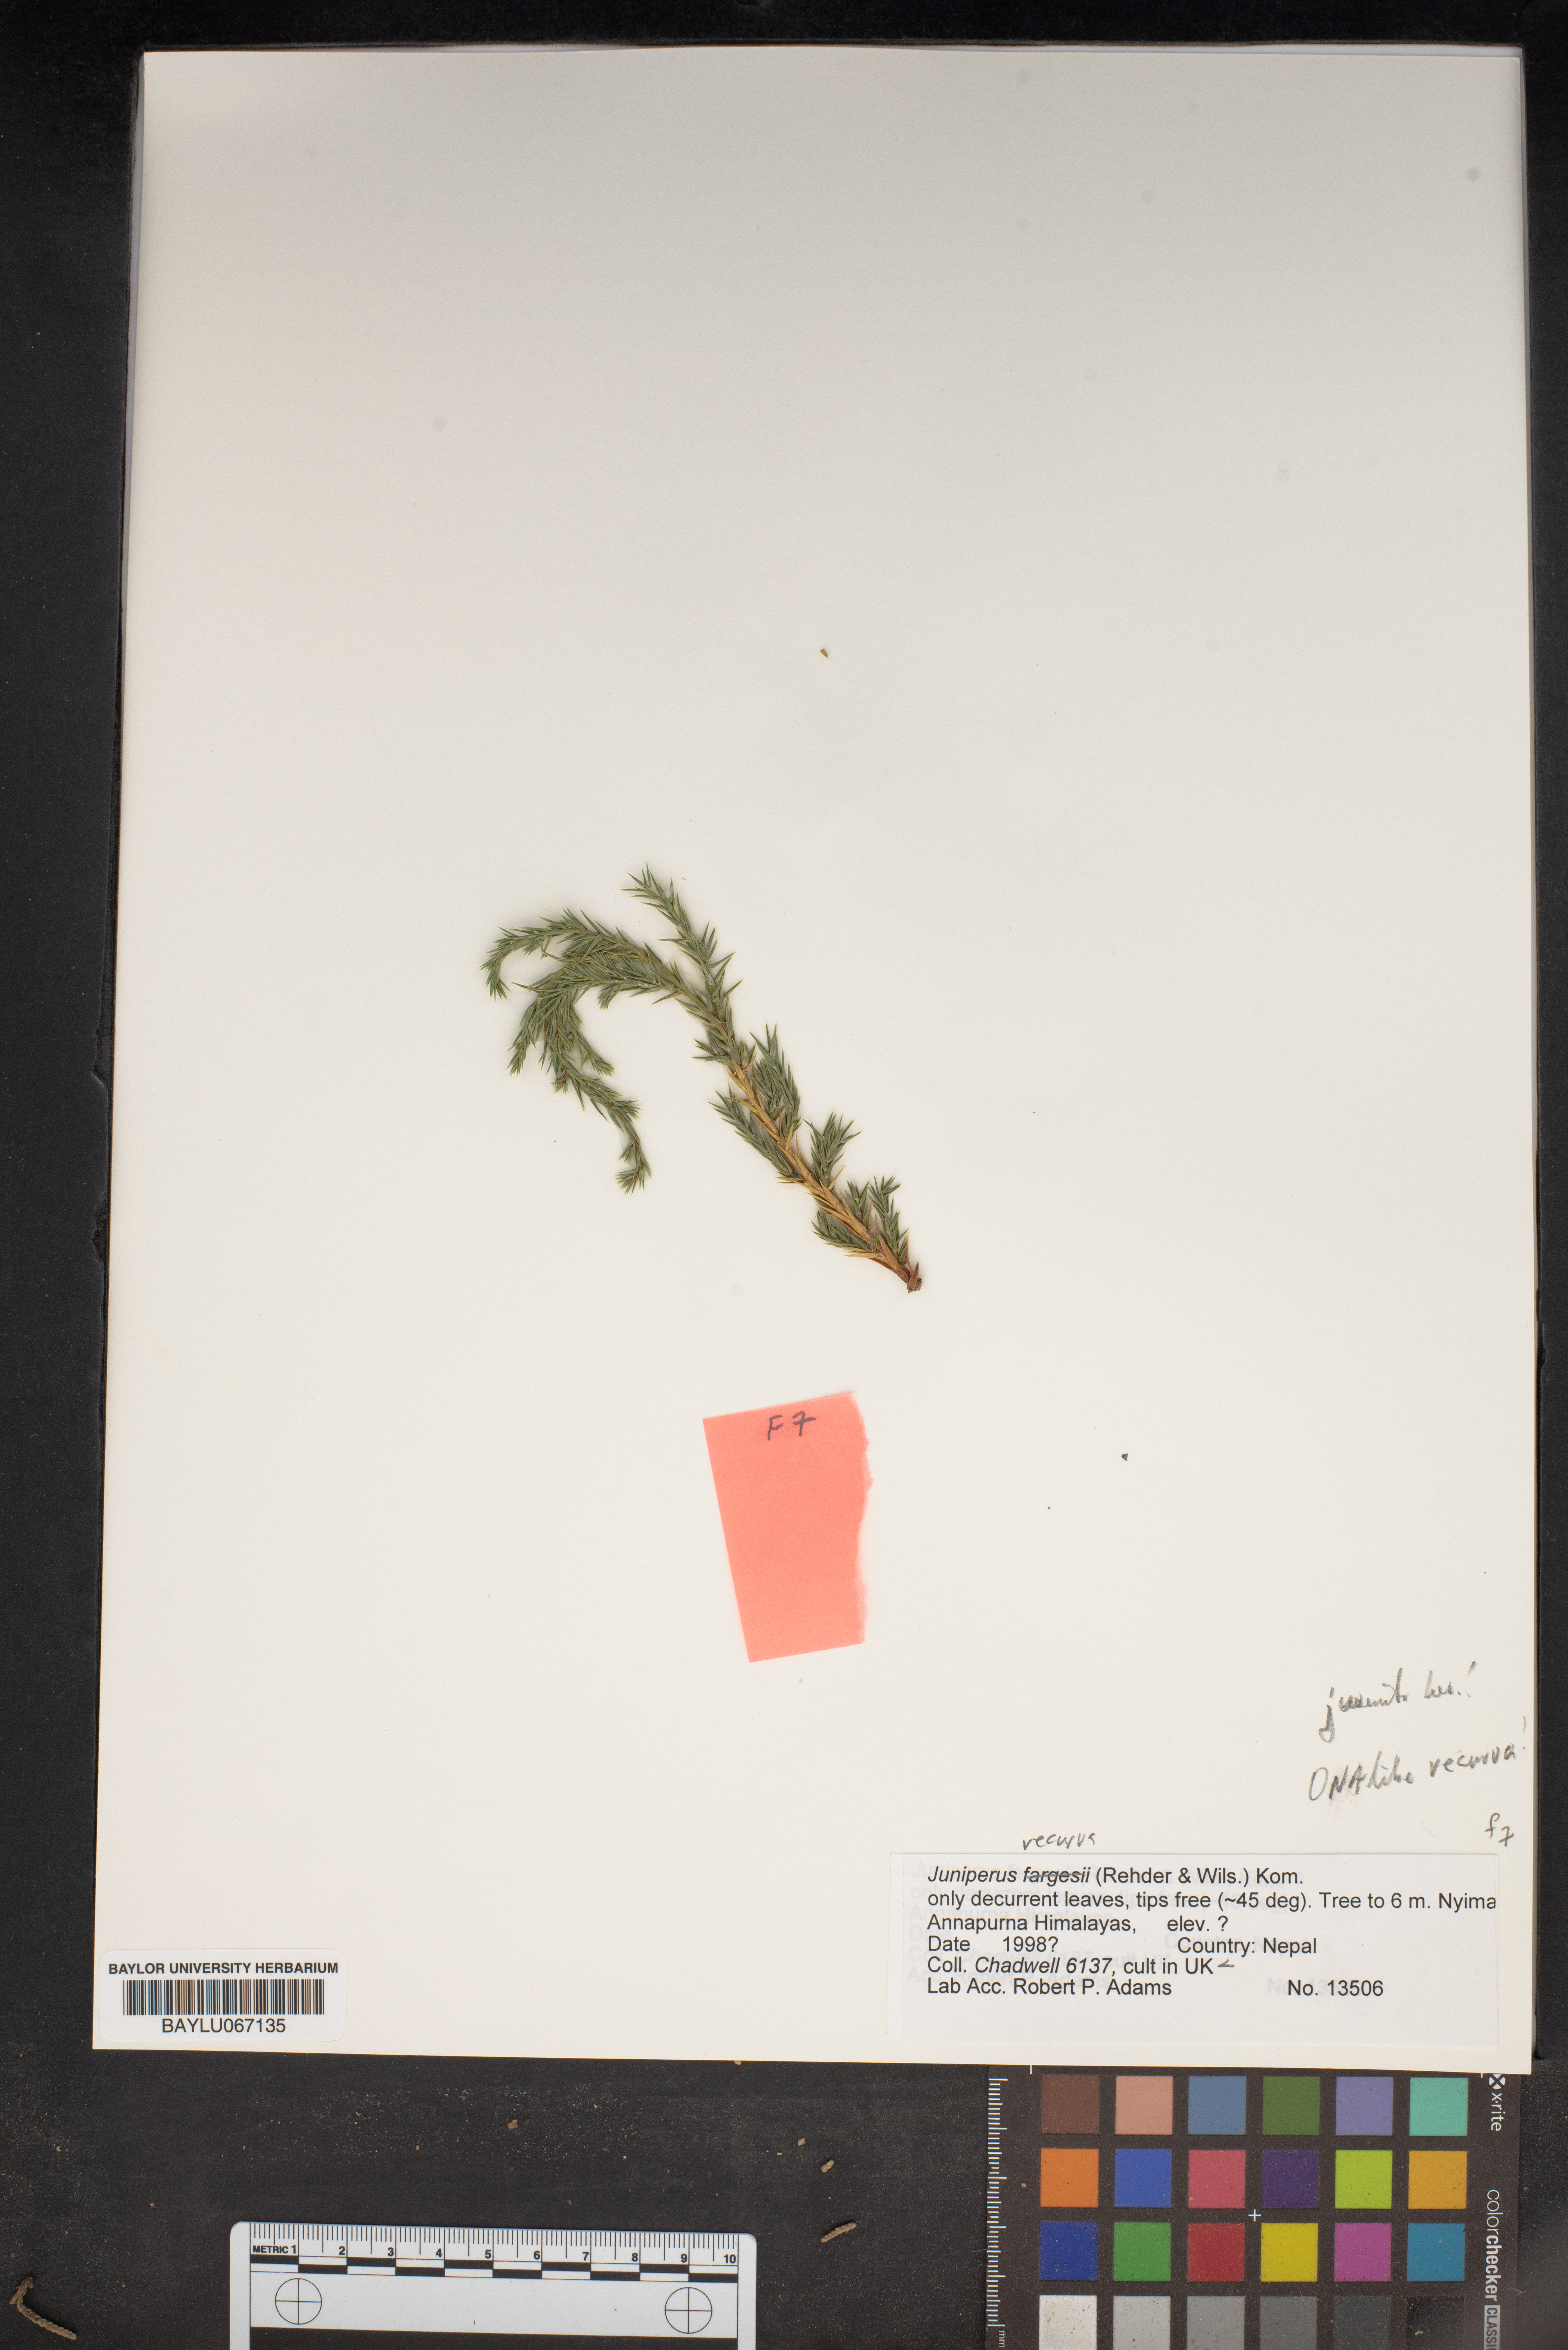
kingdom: Plantae
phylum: Tracheophyta
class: Pinopsida
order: Pinales
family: Cupressaceae
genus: Juniperus
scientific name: Juniperus squamata
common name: Flaky juniper
